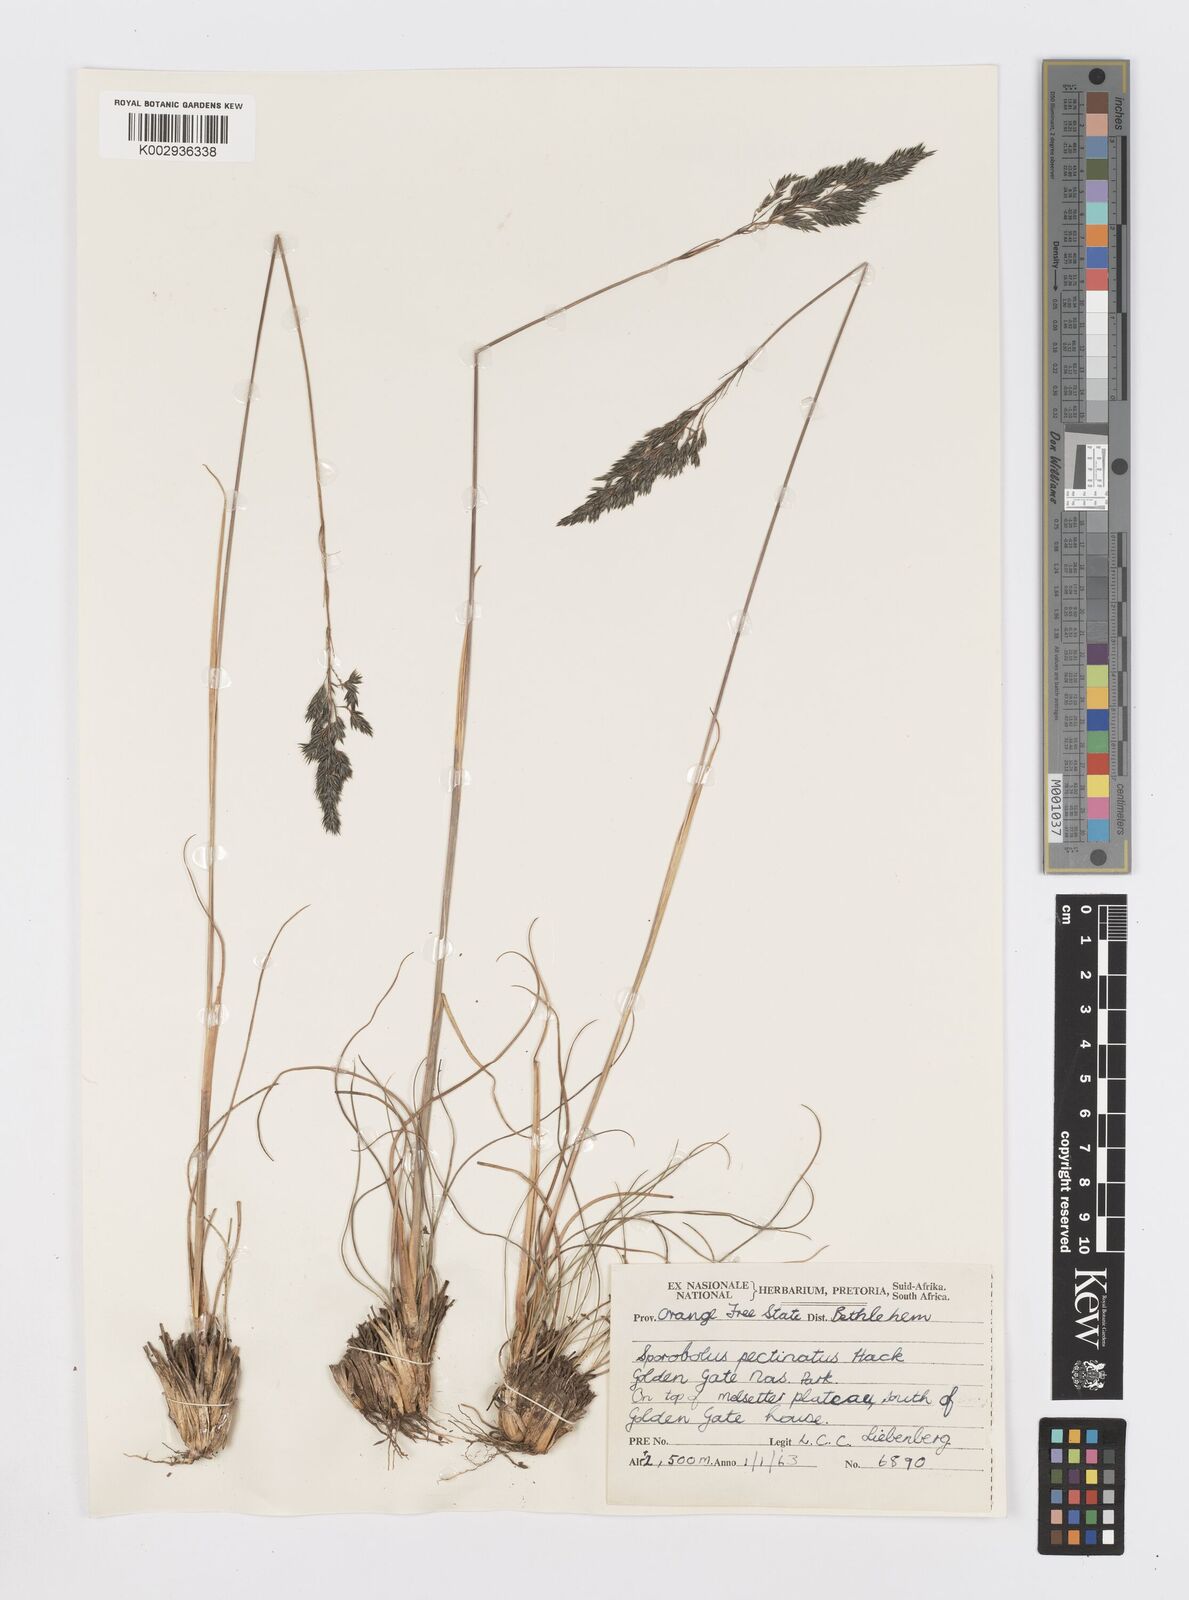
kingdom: Plantae
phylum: Tracheophyta
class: Liliopsida
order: Poales
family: Poaceae
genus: Sporobolus
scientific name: Sporobolus centrifugus
